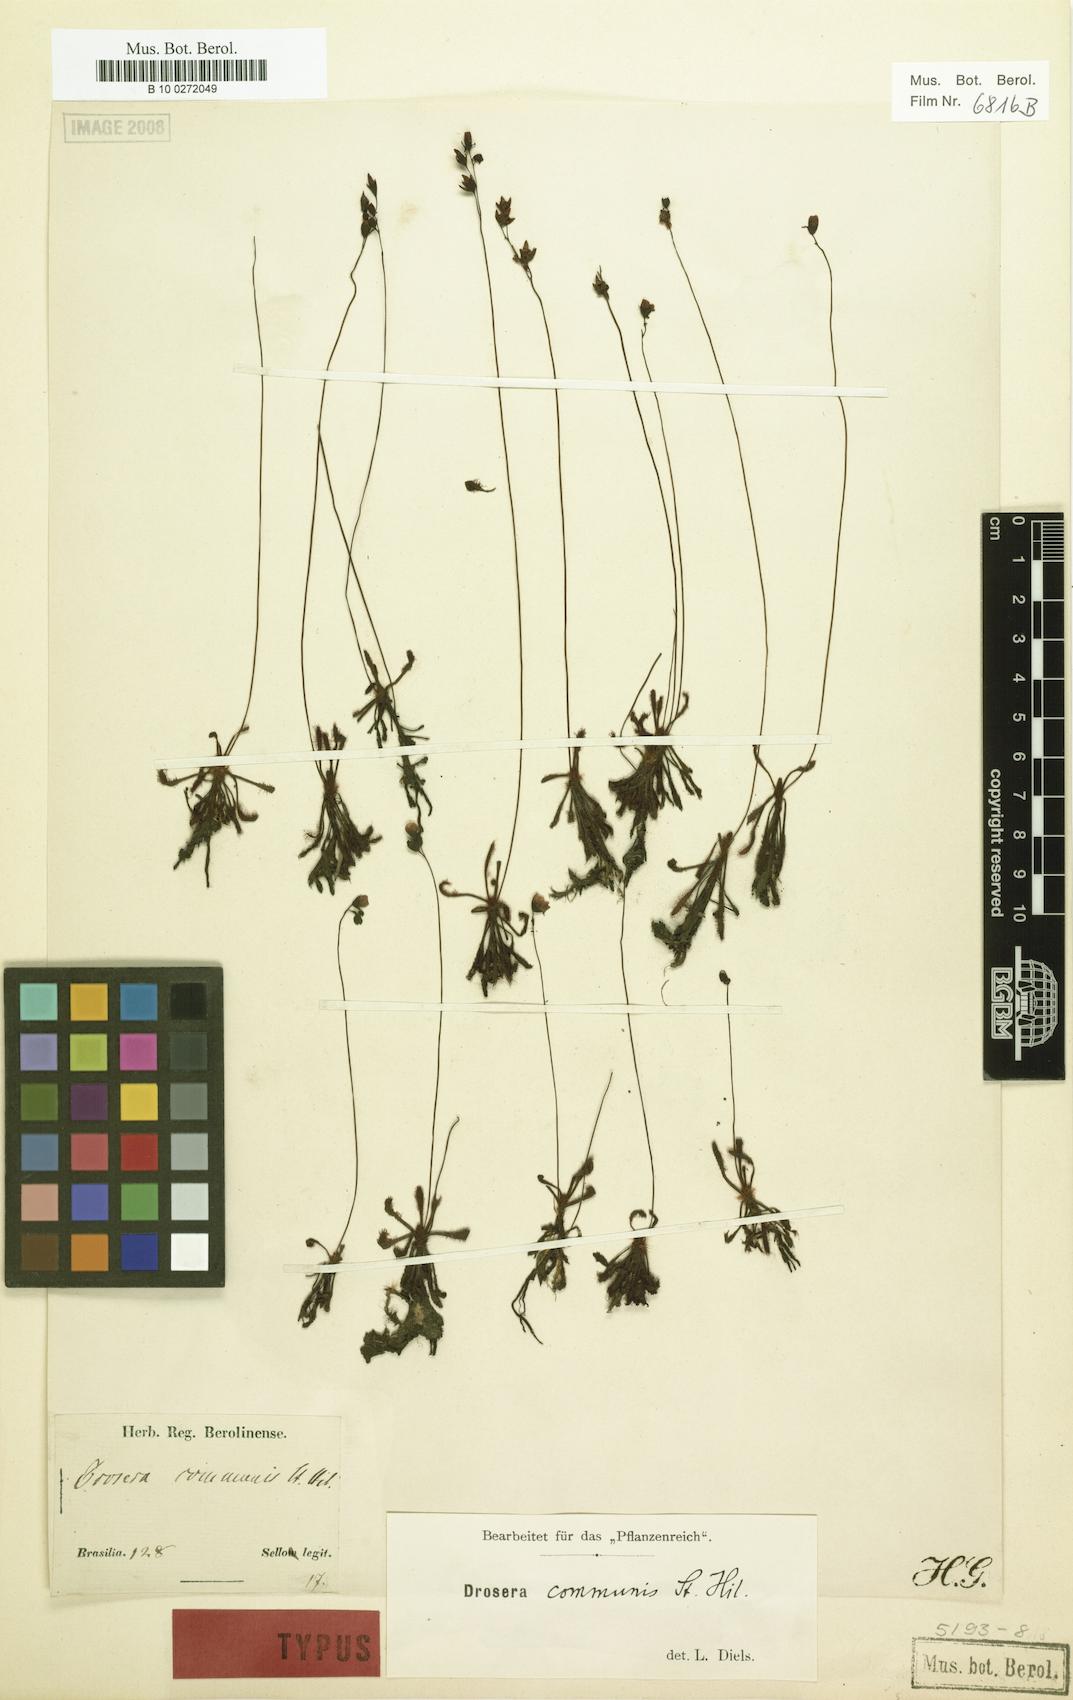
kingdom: Plantae
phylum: Tracheophyta
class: Magnoliopsida
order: Caryophyllales
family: Droseraceae
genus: Drosera
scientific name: Drosera grantsaui
